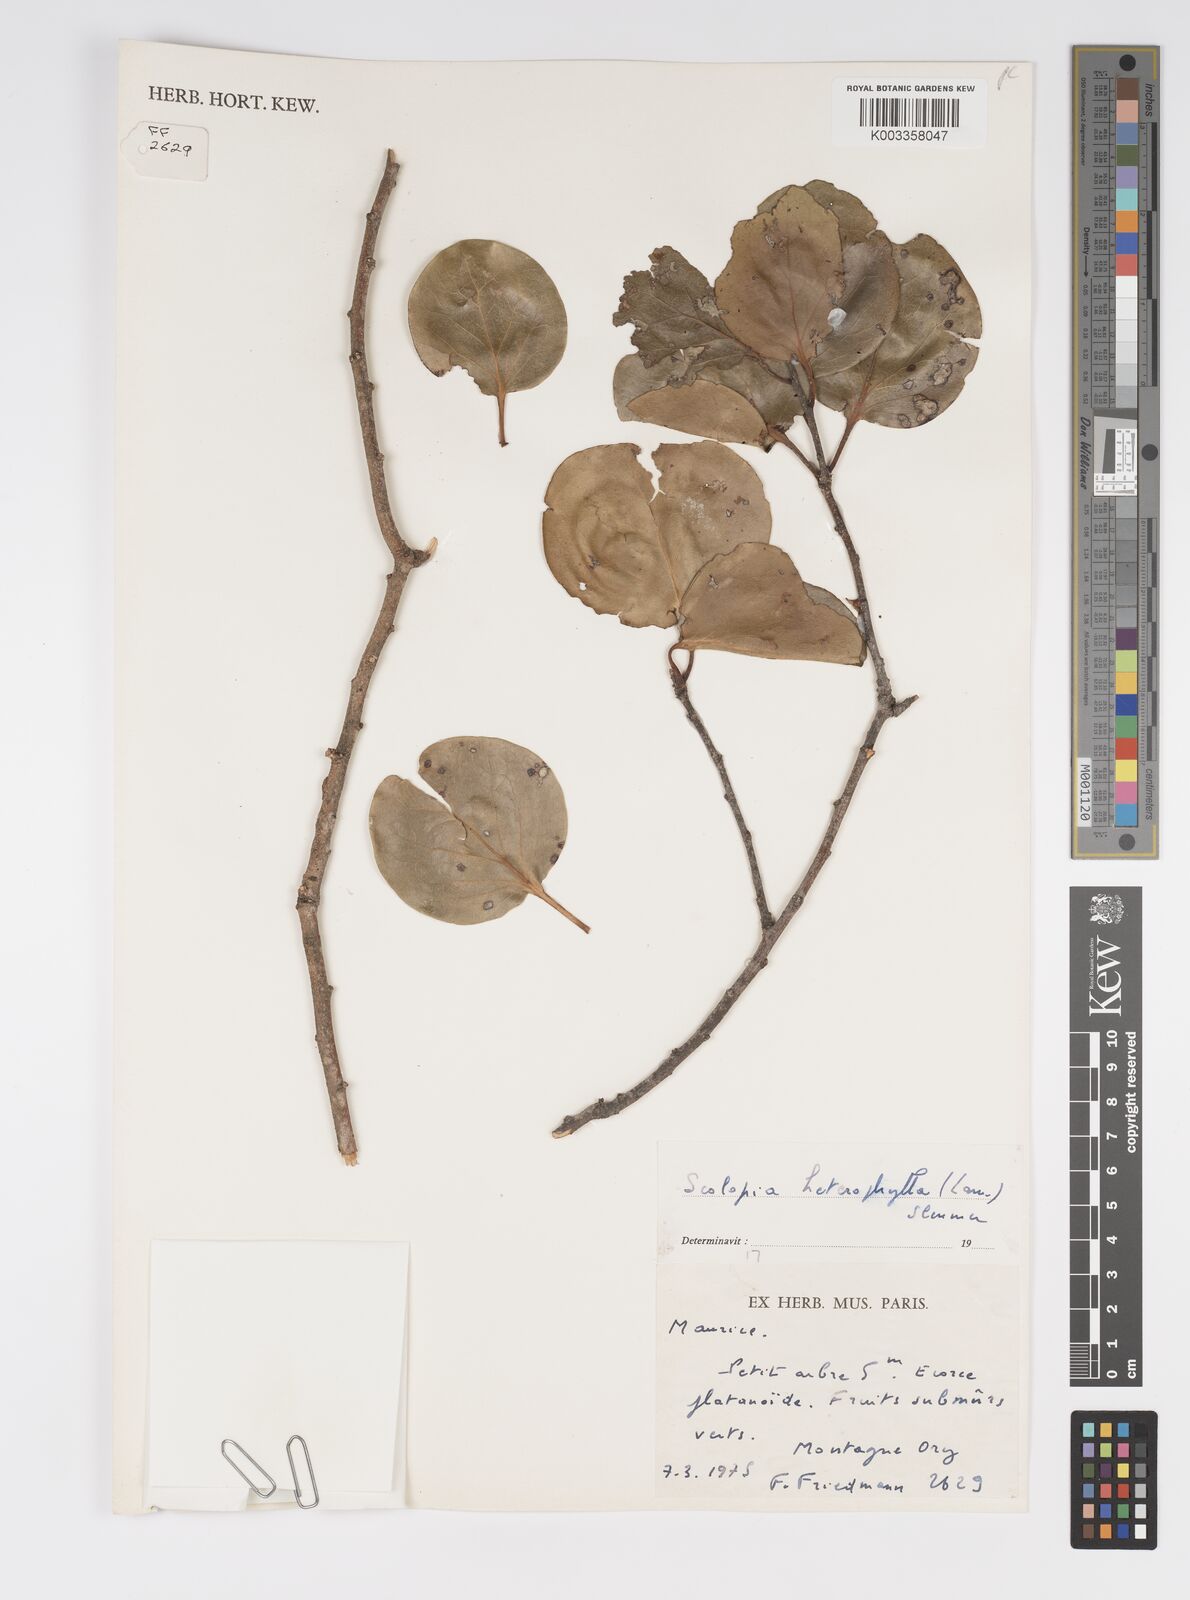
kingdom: Plantae
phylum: Tracheophyta
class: Magnoliopsida
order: Malpighiales
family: Salicaceae
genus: Scolopia
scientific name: Scolopia heterophylla
